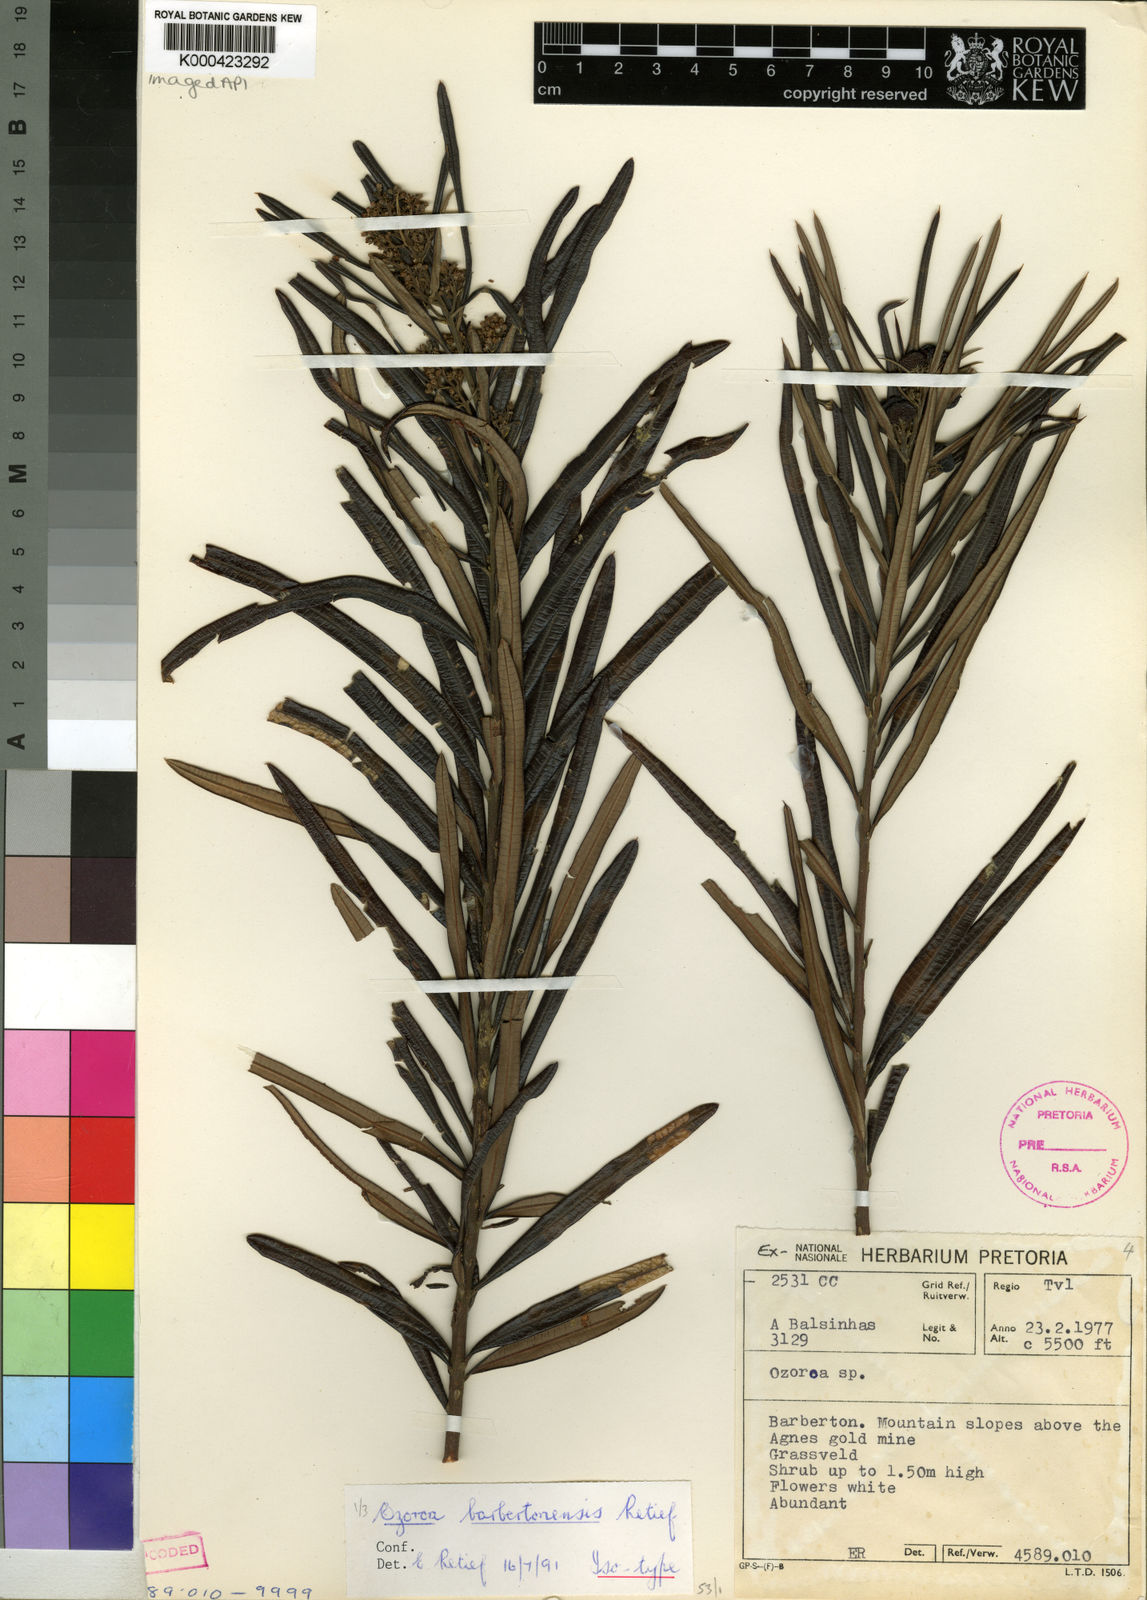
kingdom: Plantae
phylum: Tracheophyta
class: Magnoliopsida
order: Sapindales
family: Anacardiaceae
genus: Ozoroa
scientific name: Ozoroa barbertonensis
